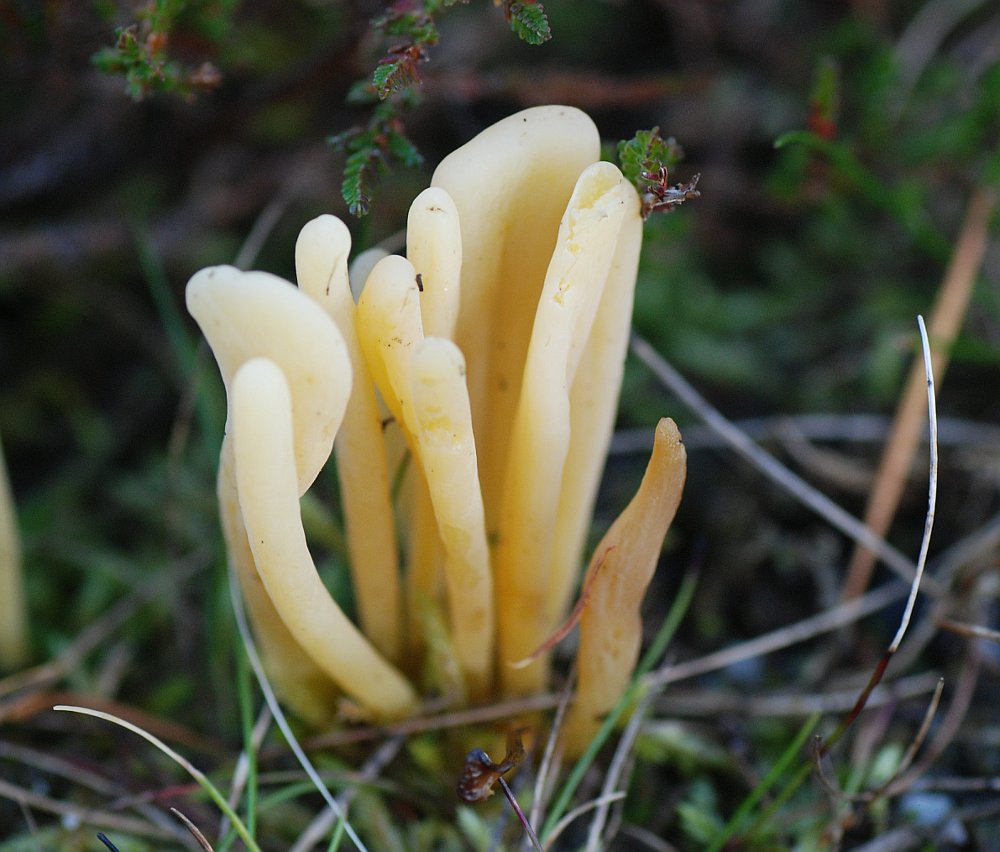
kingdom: Fungi
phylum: Basidiomycota
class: Agaricomycetes
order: Agaricales
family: Clavariaceae
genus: Clavaria
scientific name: Clavaria argillacea
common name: lerfarvet køllesvamp
